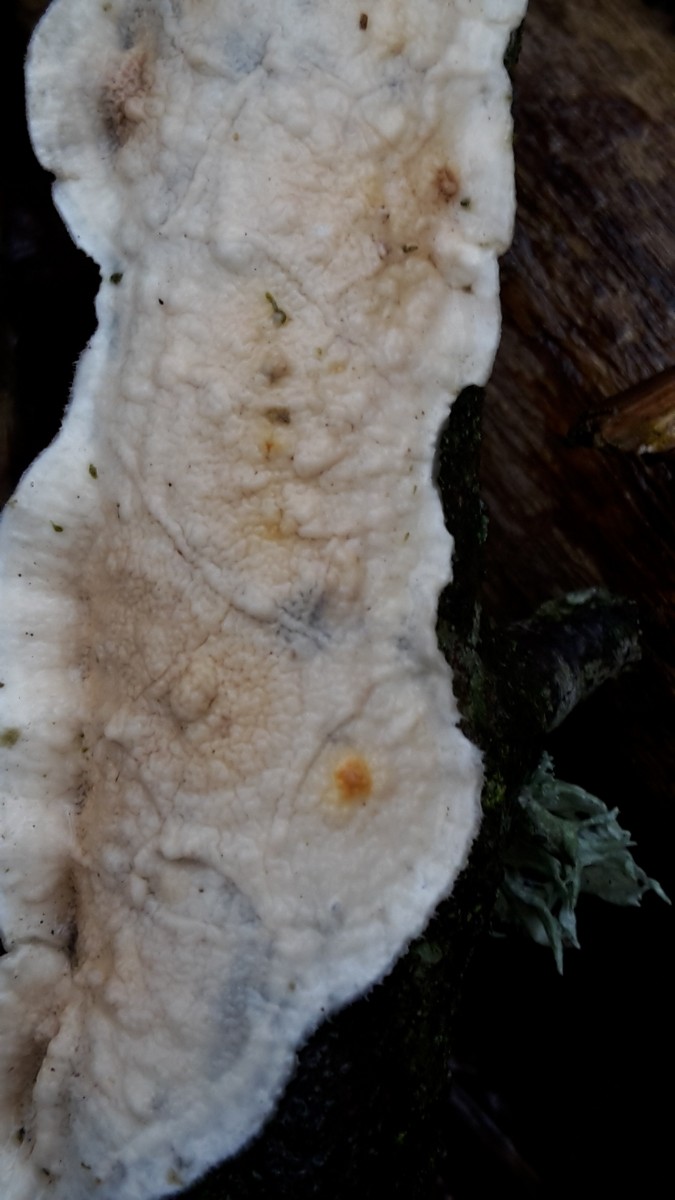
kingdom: Fungi
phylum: Basidiomycota
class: Agaricomycetes
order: Polyporales
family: Irpicaceae
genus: Byssomerulius
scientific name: Byssomerulius corium
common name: læder-åresvamp
